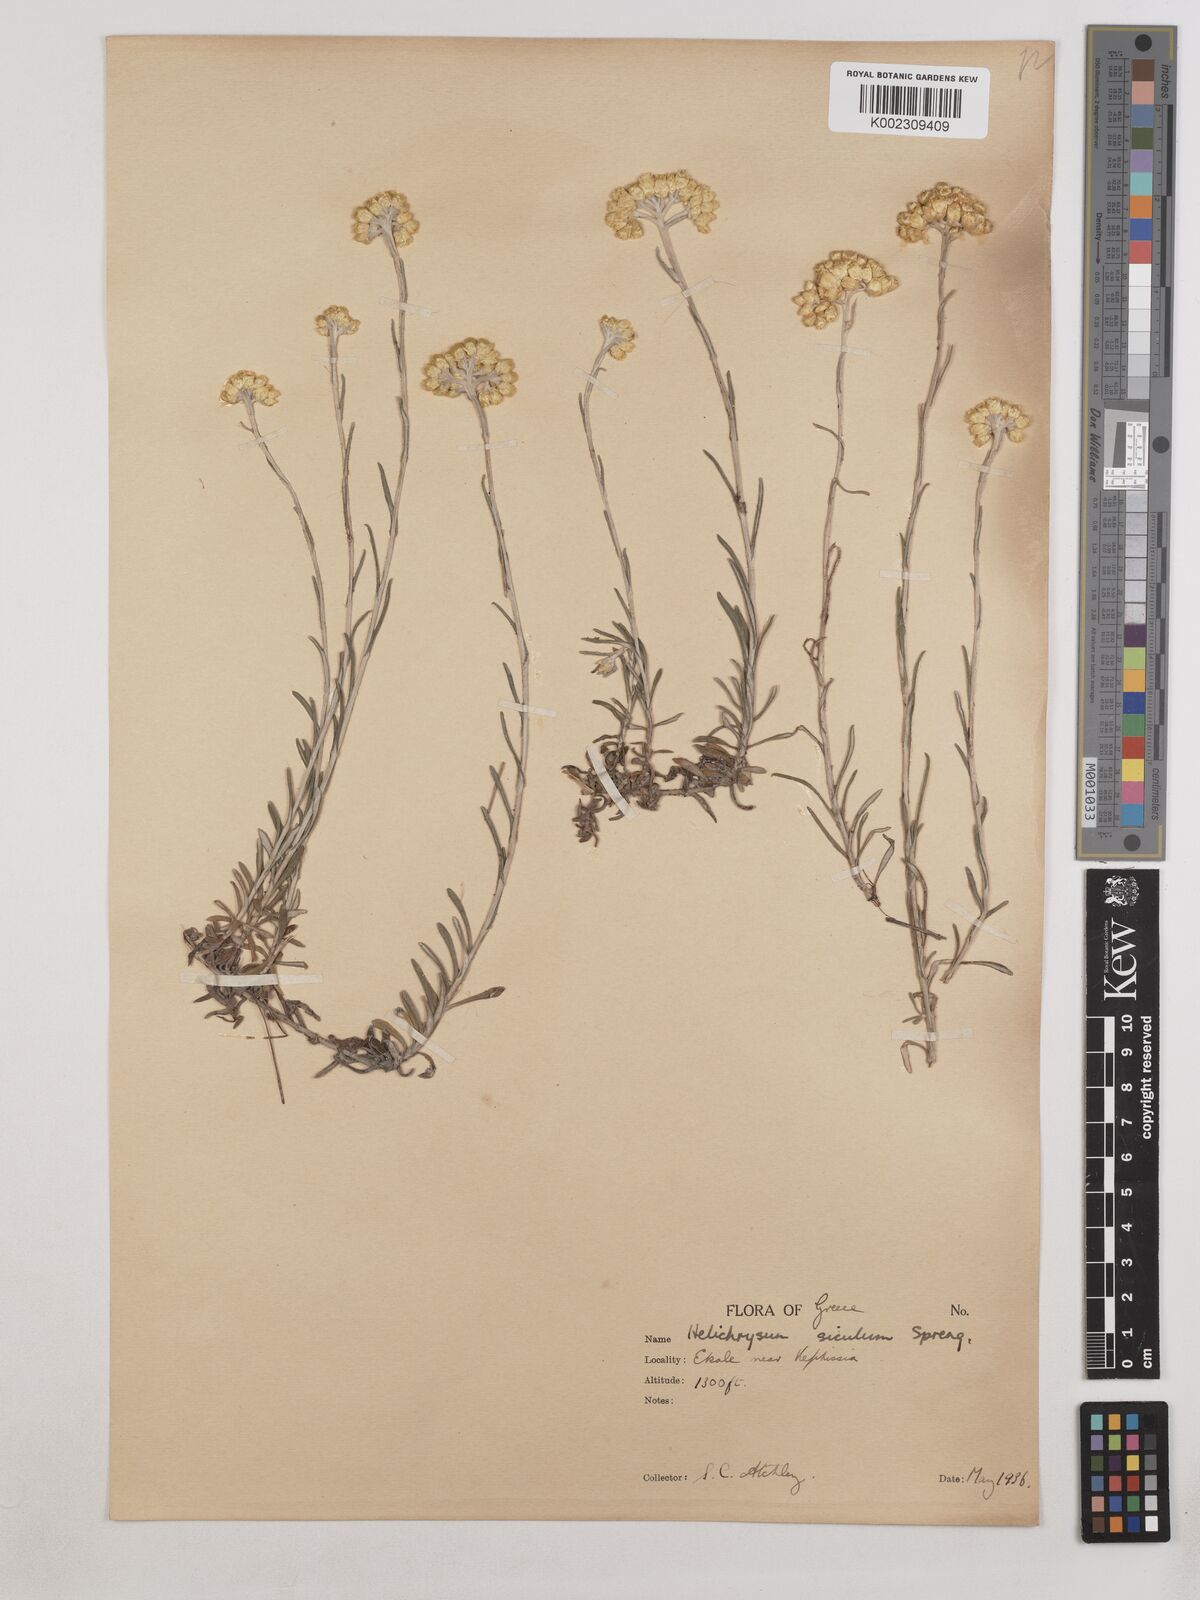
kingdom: Plantae
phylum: Tracheophyta
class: Magnoliopsida
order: Asterales
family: Asteraceae
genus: Helichrysum
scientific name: Helichrysum stoechas
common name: Goldilocks
